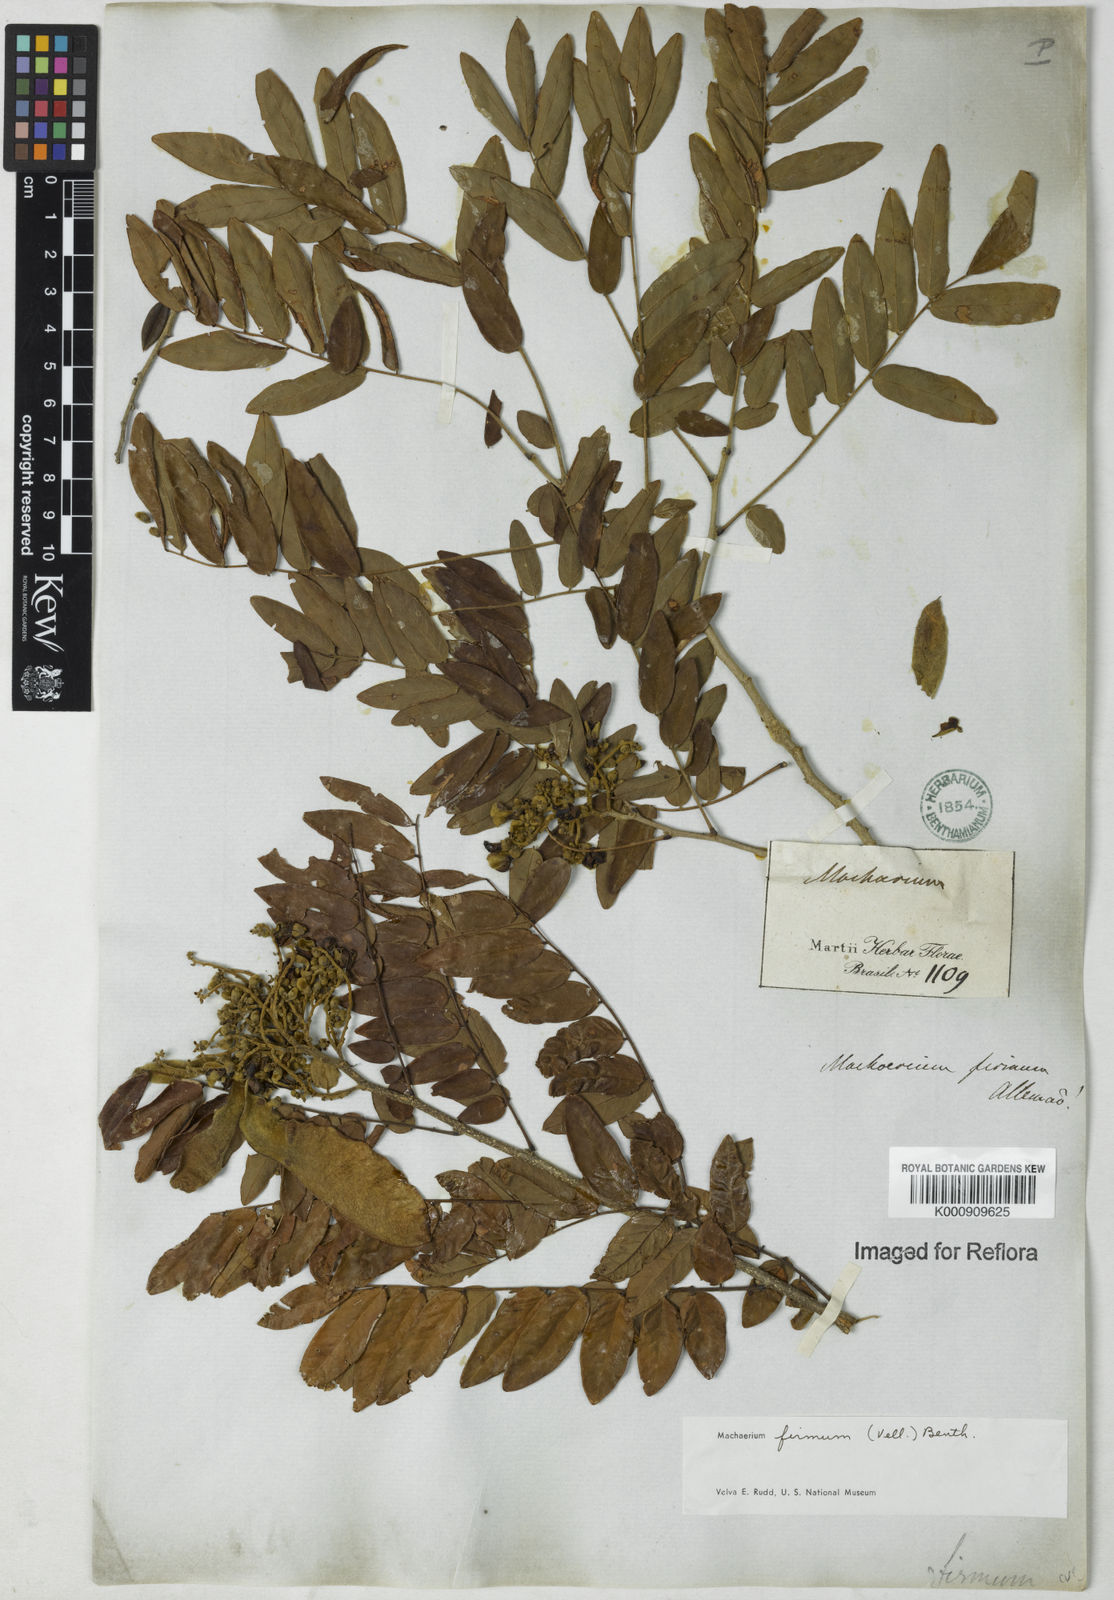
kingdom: Plantae
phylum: Tracheophyta
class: Magnoliopsida
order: Fabales
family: Fabaceae
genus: Machaerium
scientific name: Machaerium firmum
